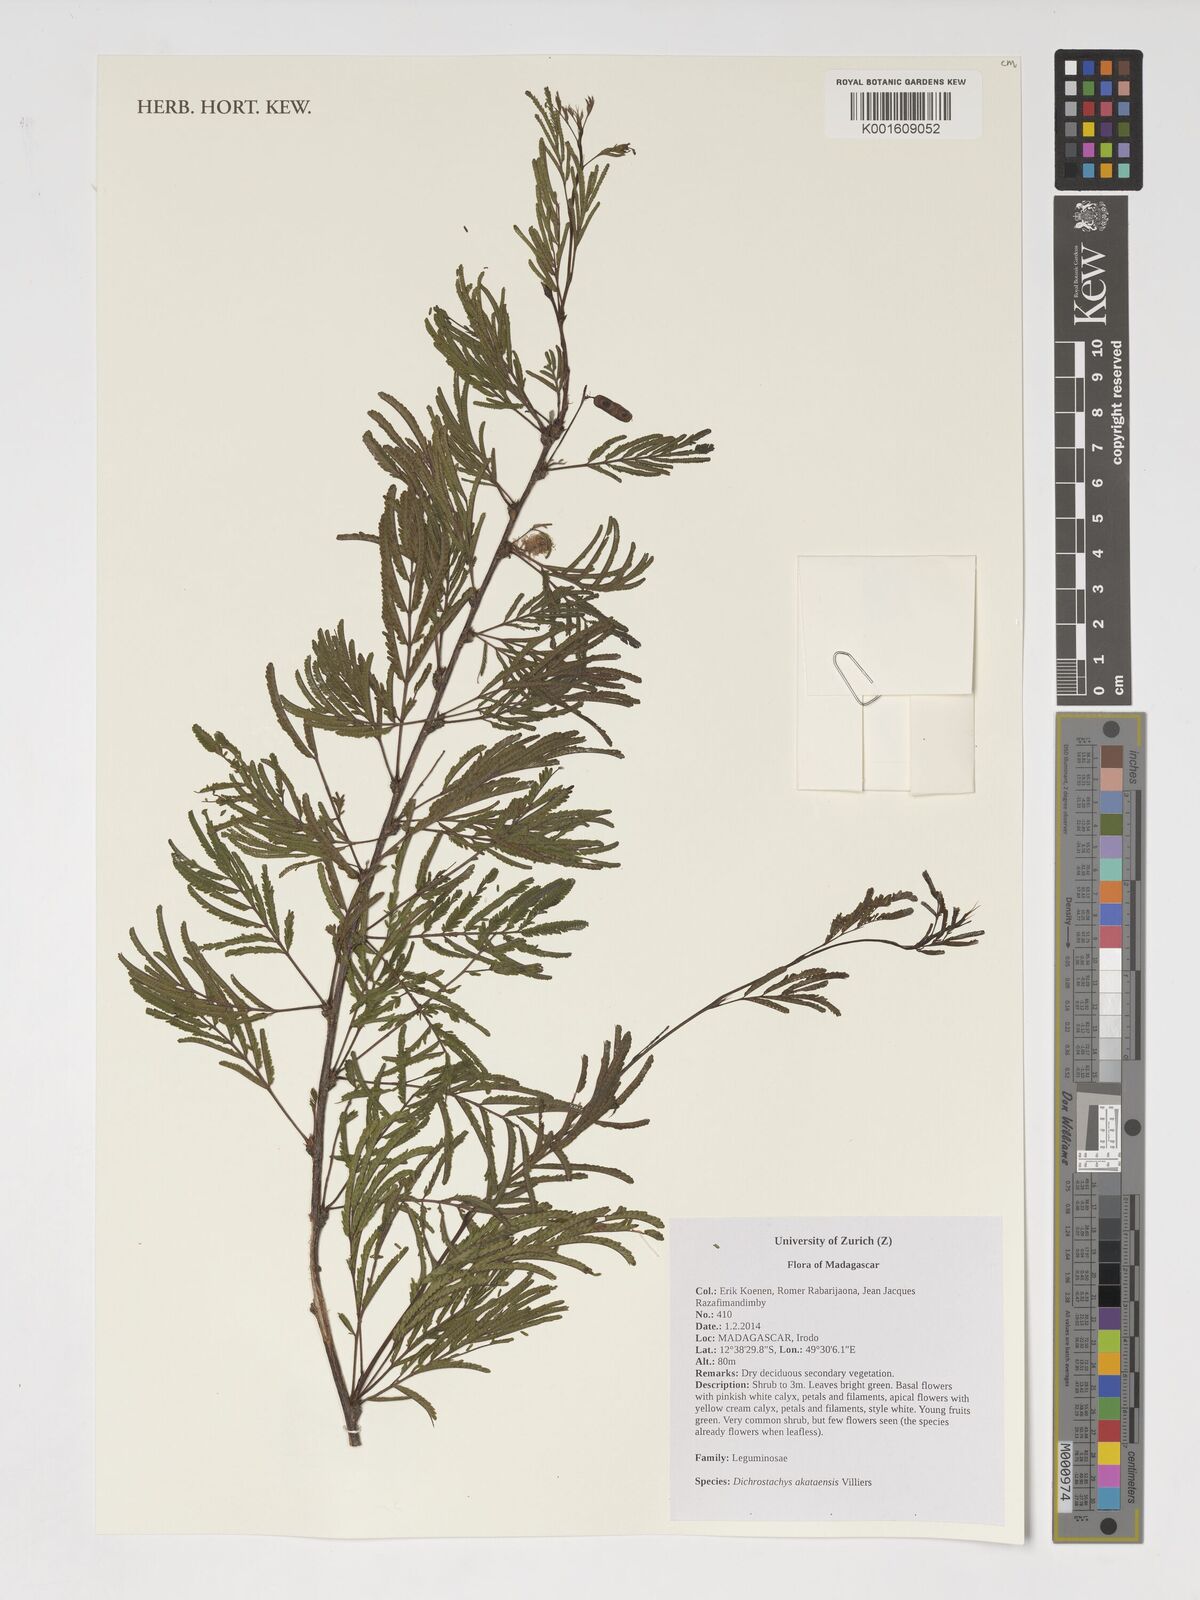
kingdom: Plantae
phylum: Tracheophyta
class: Magnoliopsida
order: Fabales
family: Fabaceae
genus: Dichrostachys
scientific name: Dichrostachys akataensis
